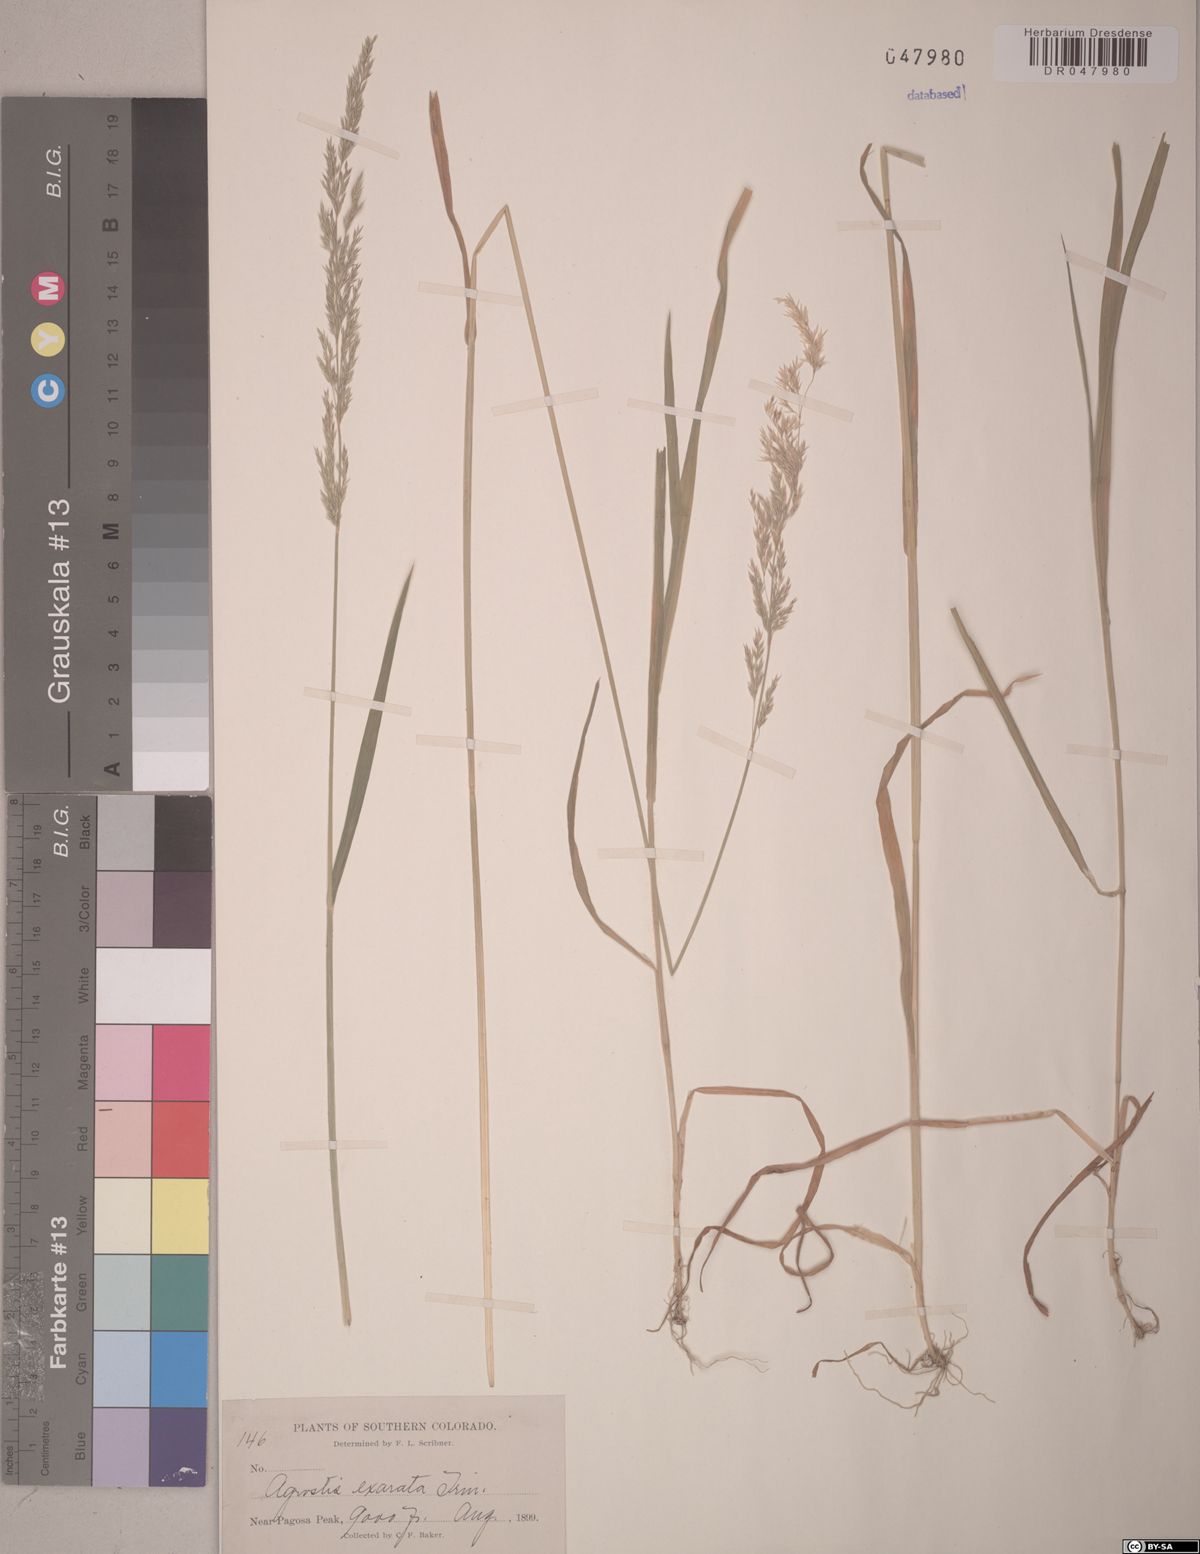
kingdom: Plantae
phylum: Tracheophyta
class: Liliopsida
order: Poales
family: Poaceae
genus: Agrostis
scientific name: Agrostis exarata
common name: Spike bent
